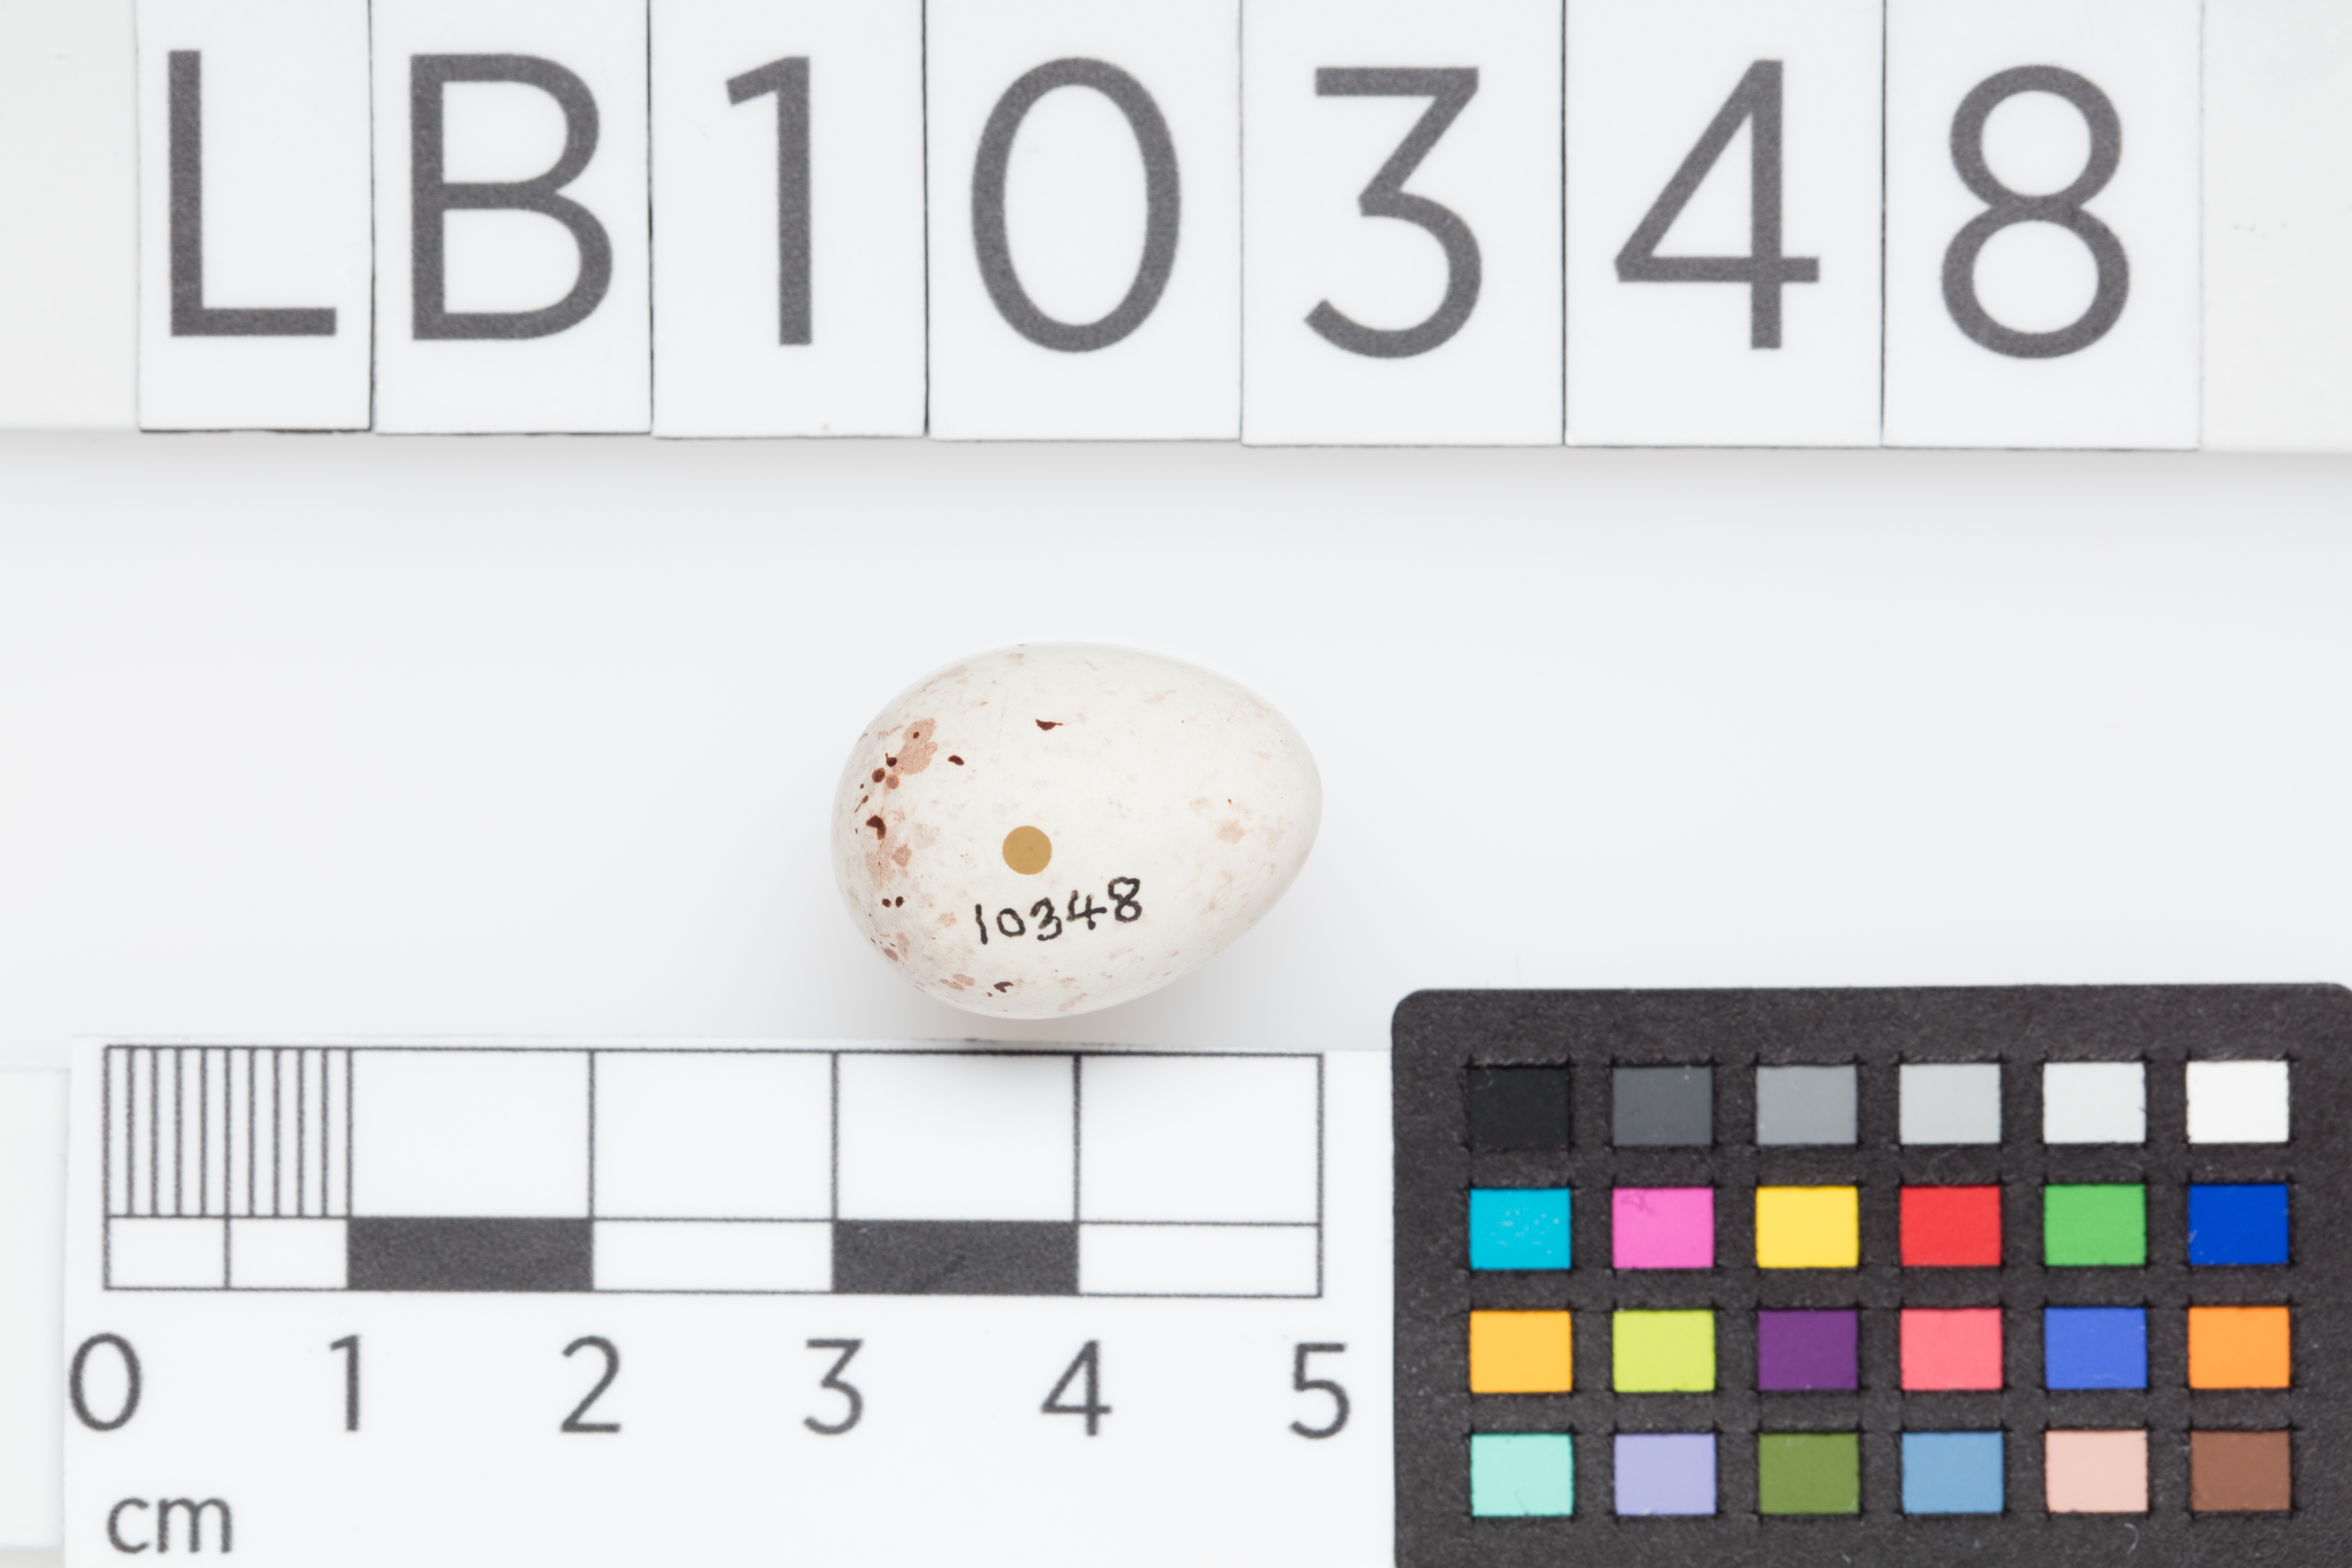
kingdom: Plantae
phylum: Tracheophyta
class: Liliopsida
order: Poales
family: Poaceae
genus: Chloris
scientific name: Chloris chloris
